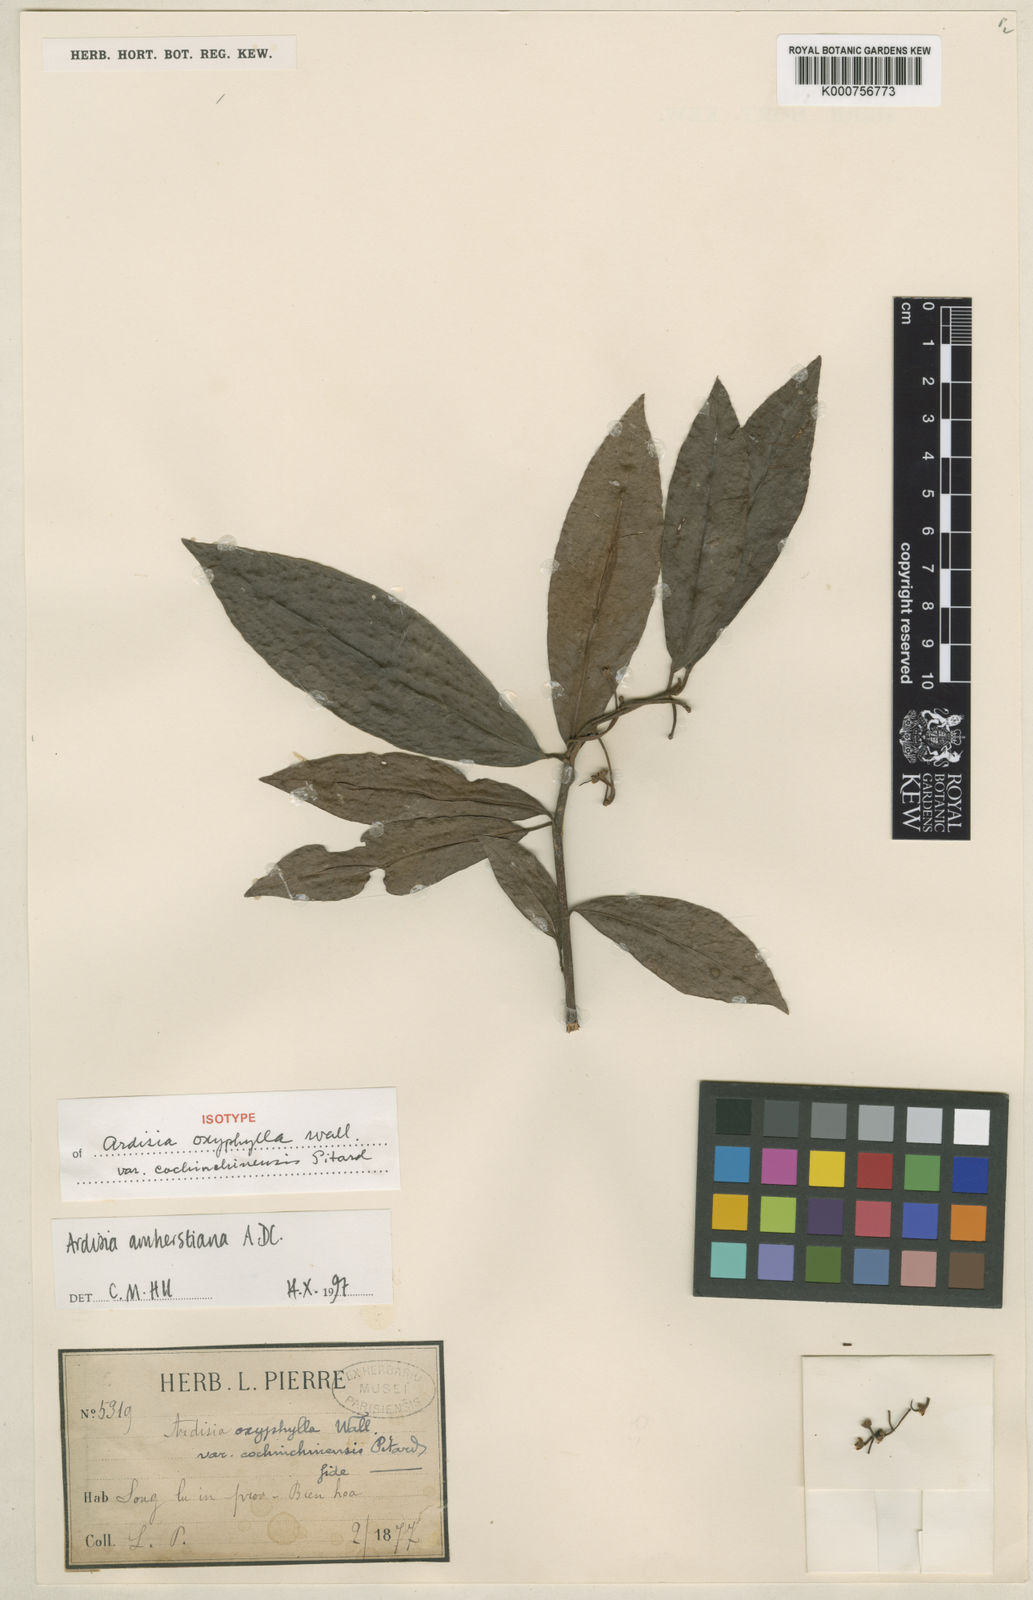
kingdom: Plantae
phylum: Tracheophyta
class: Magnoliopsida
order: Ericales
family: Primulaceae
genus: Ardisia
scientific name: Ardisia amherstiana
